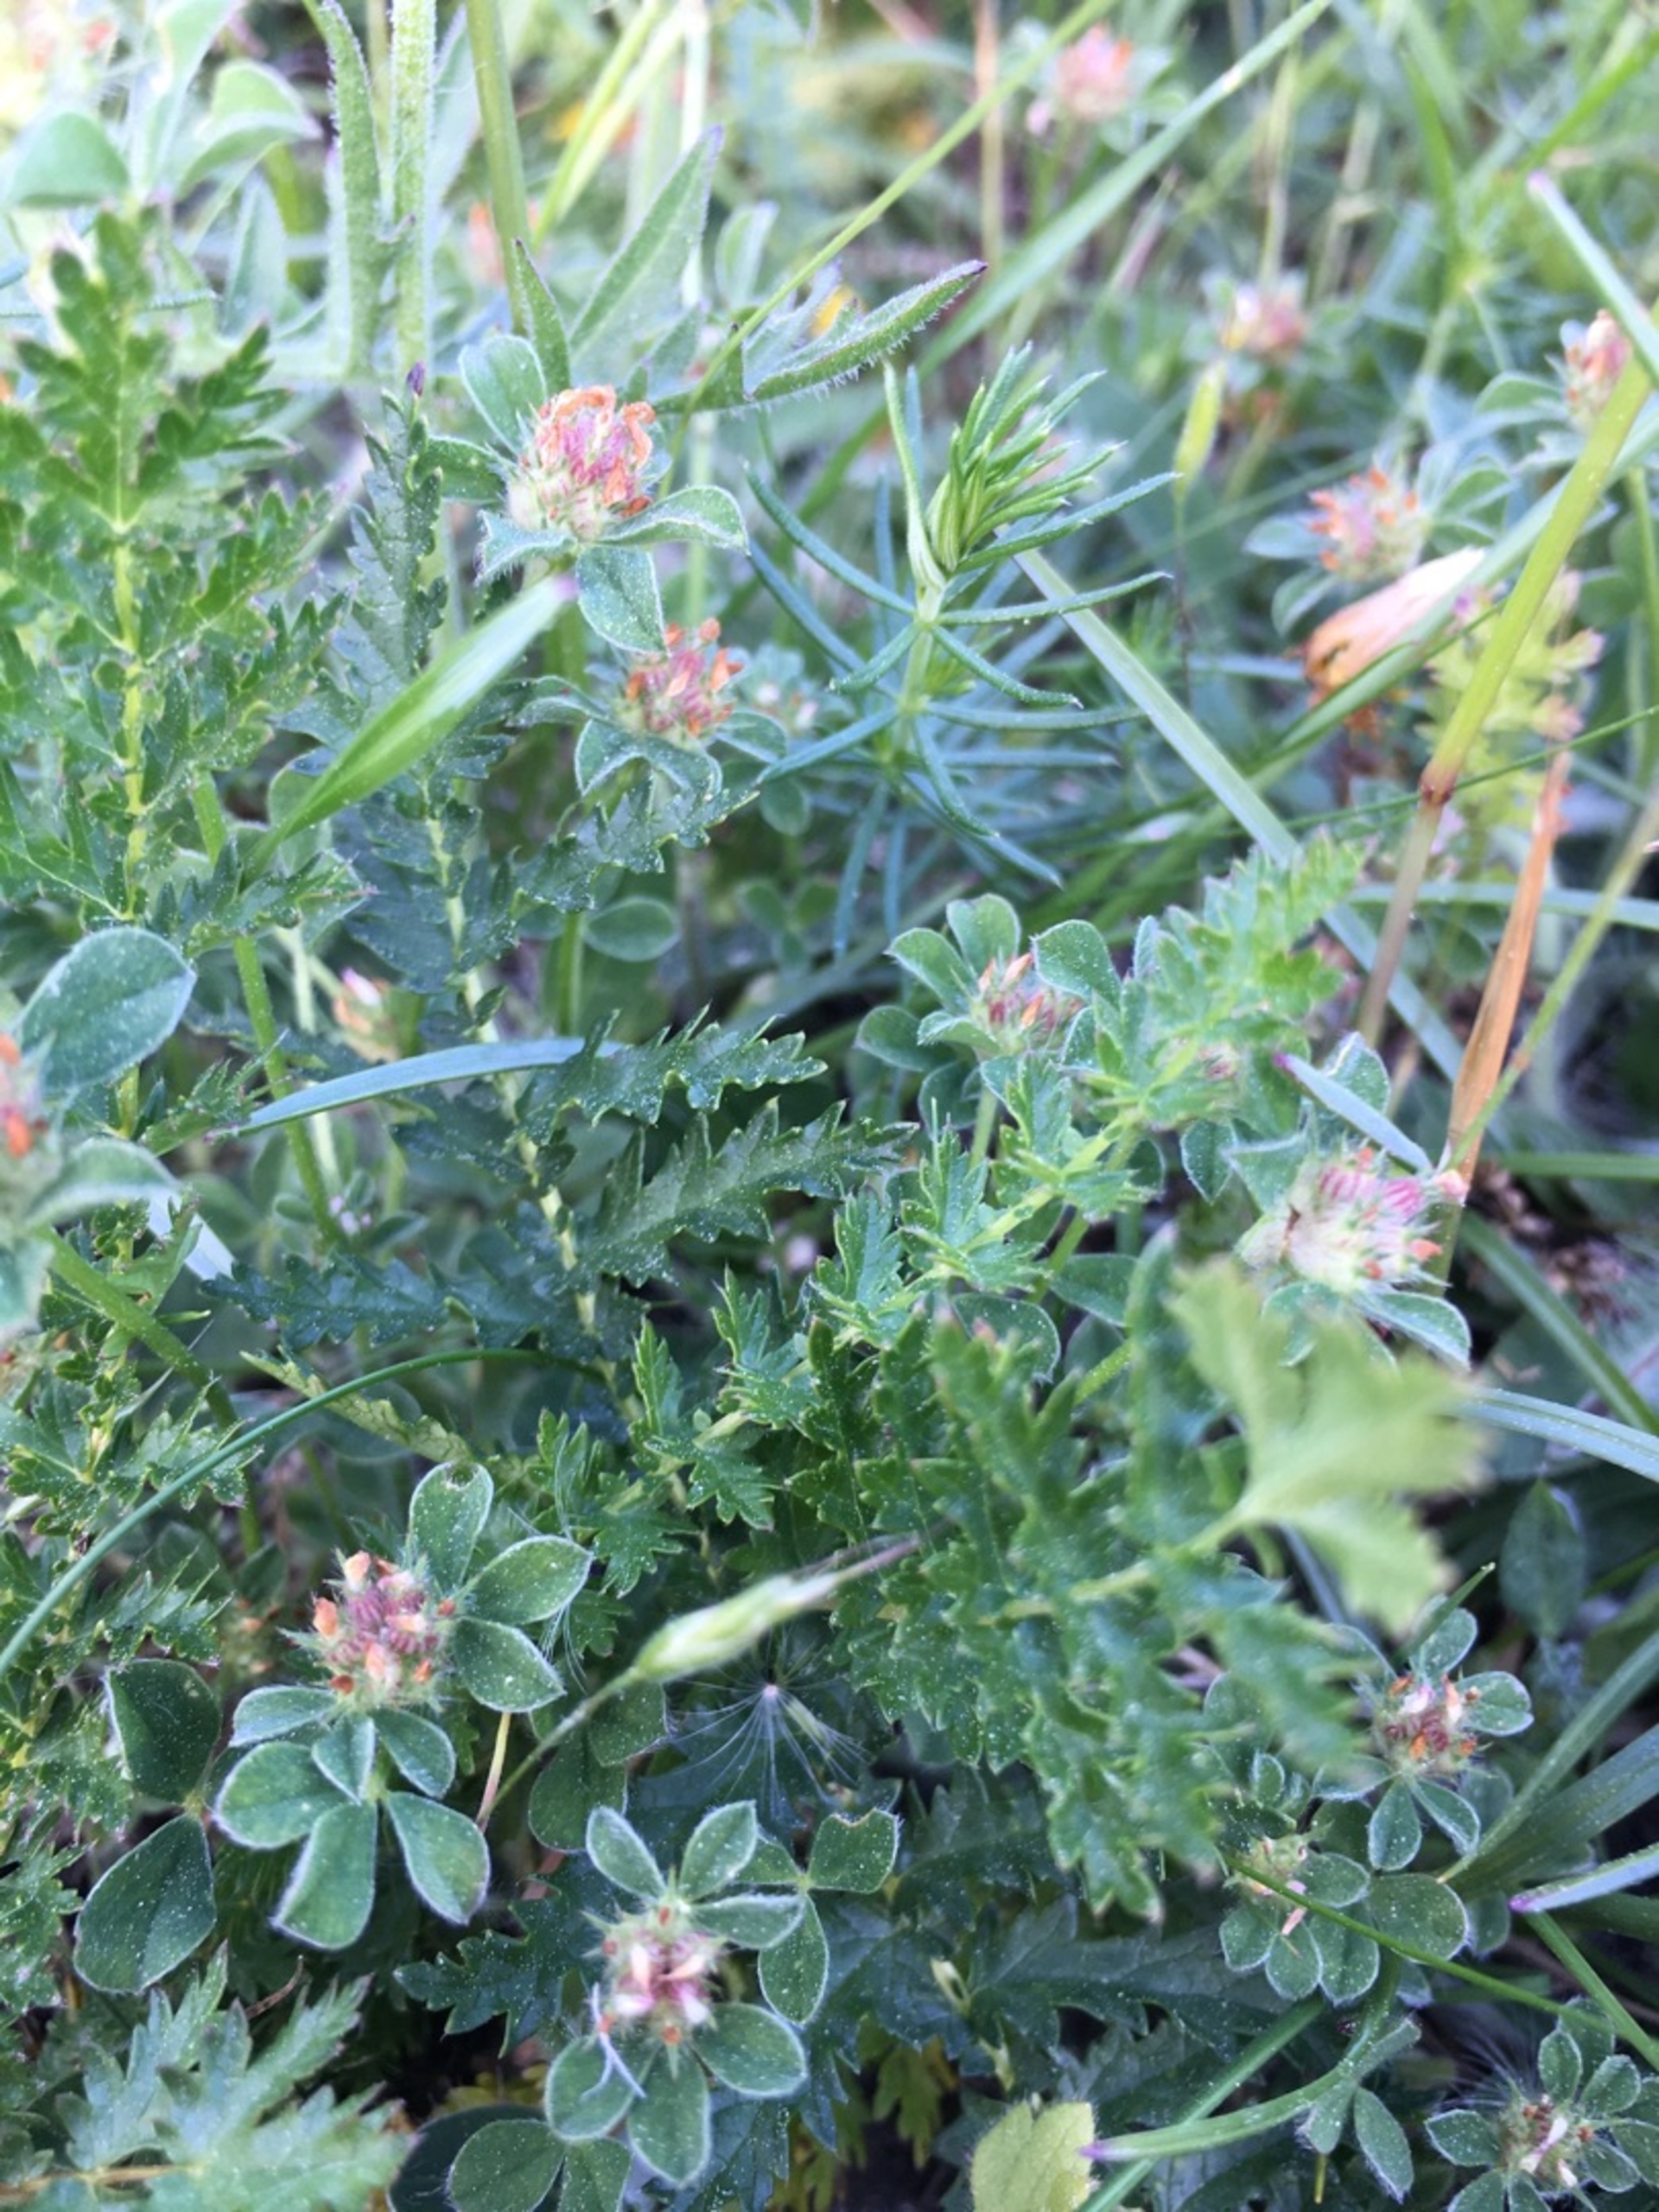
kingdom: Plantae
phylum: Tracheophyta
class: Magnoliopsida
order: Fabales
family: Fabaceae
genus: Trifolium
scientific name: Trifolium striatum
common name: Stribet kløver
